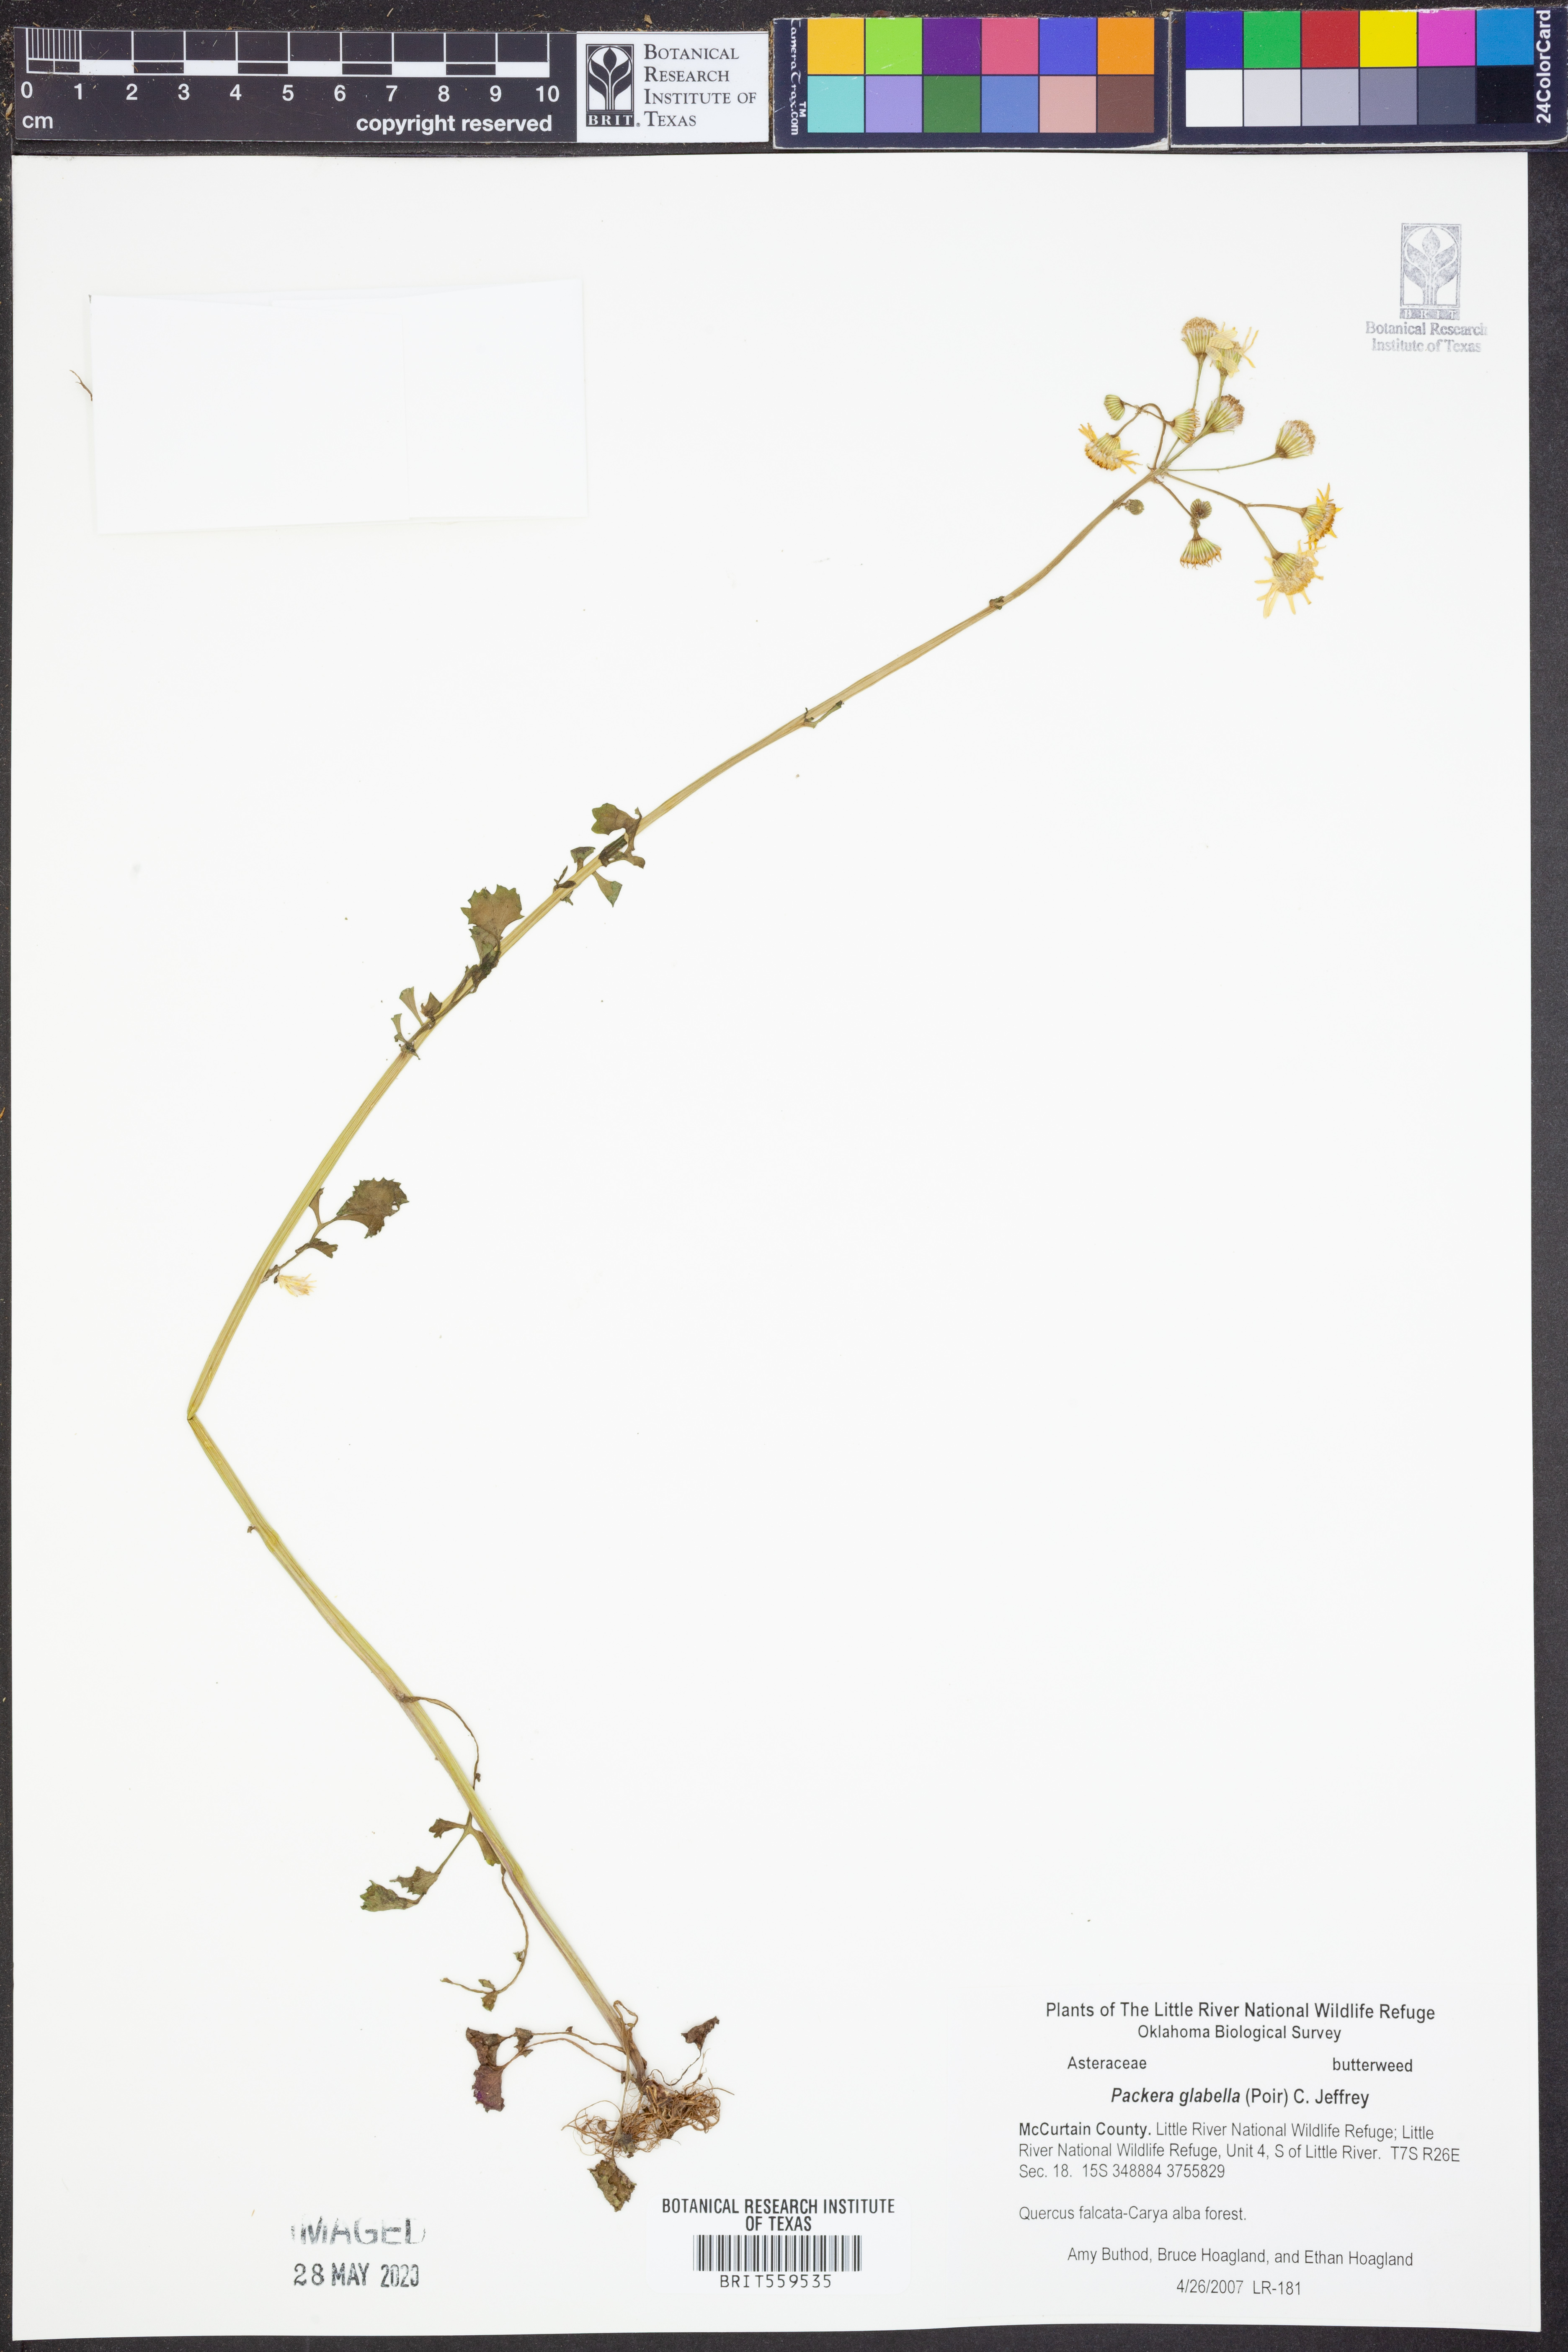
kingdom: Plantae
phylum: Tracheophyta
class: Magnoliopsida
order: Asterales
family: Asteraceae
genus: Packera
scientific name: Packera glabella
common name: Butterweed
